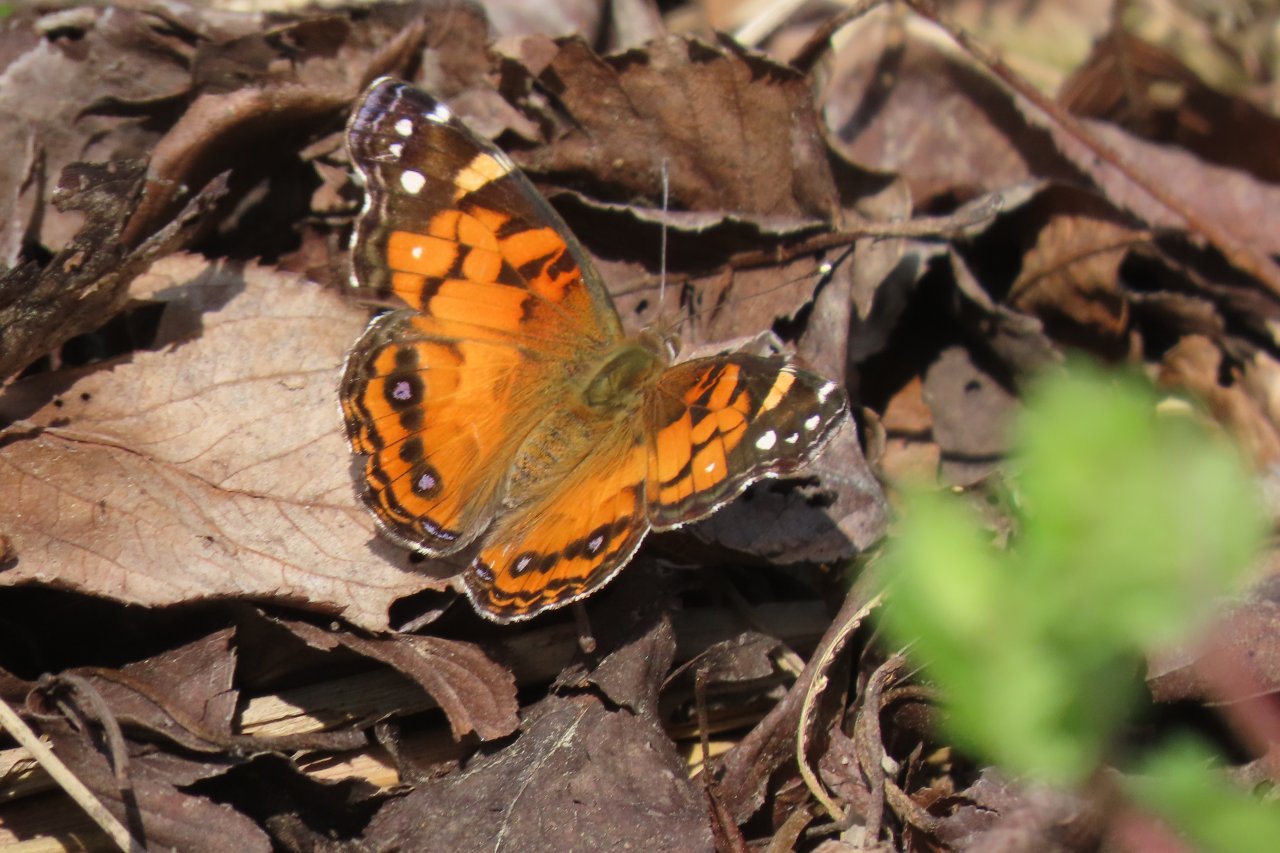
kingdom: Animalia
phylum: Arthropoda
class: Insecta
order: Lepidoptera
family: Nymphalidae
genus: Vanessa
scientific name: Vanessa virginiensis
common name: American Lady
